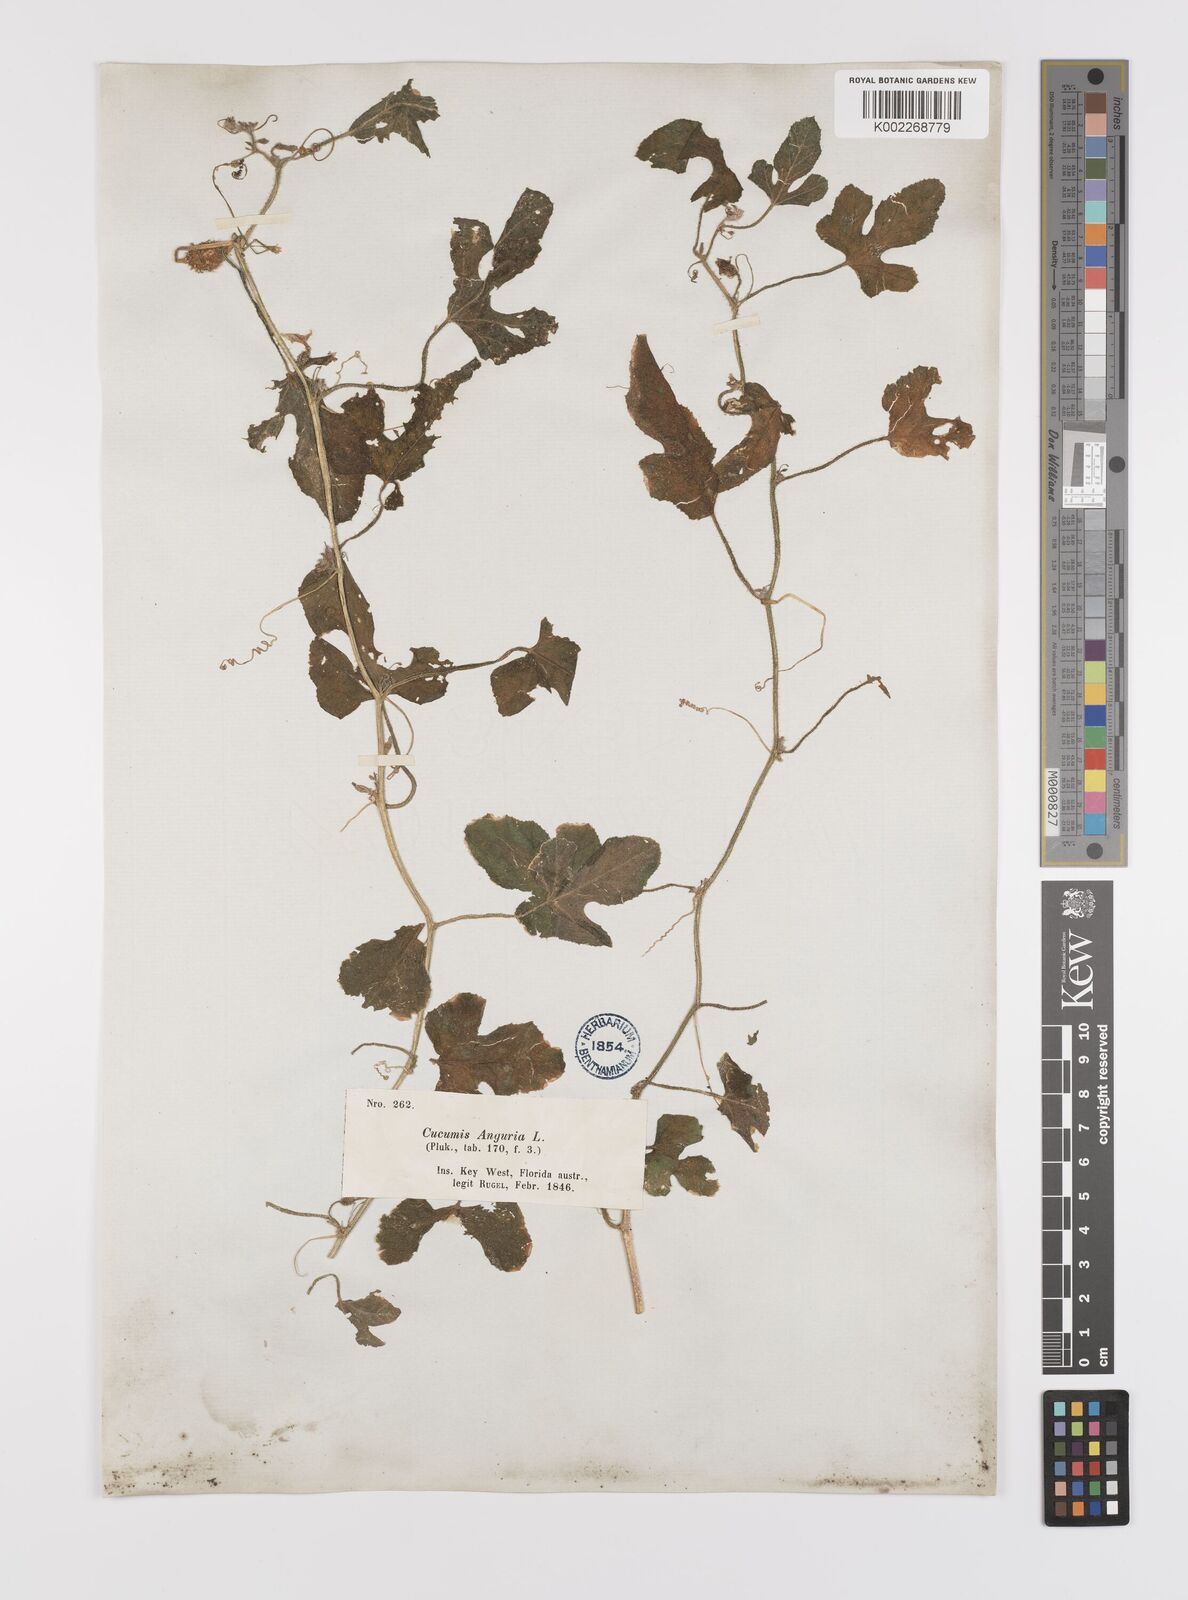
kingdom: Plantae
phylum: Tracheophyta
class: Magnoliopsida
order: Cucurbitales
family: Cucurbitaceae
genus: Cucumis
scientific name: Cucumis anguria
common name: West indian gherkin
